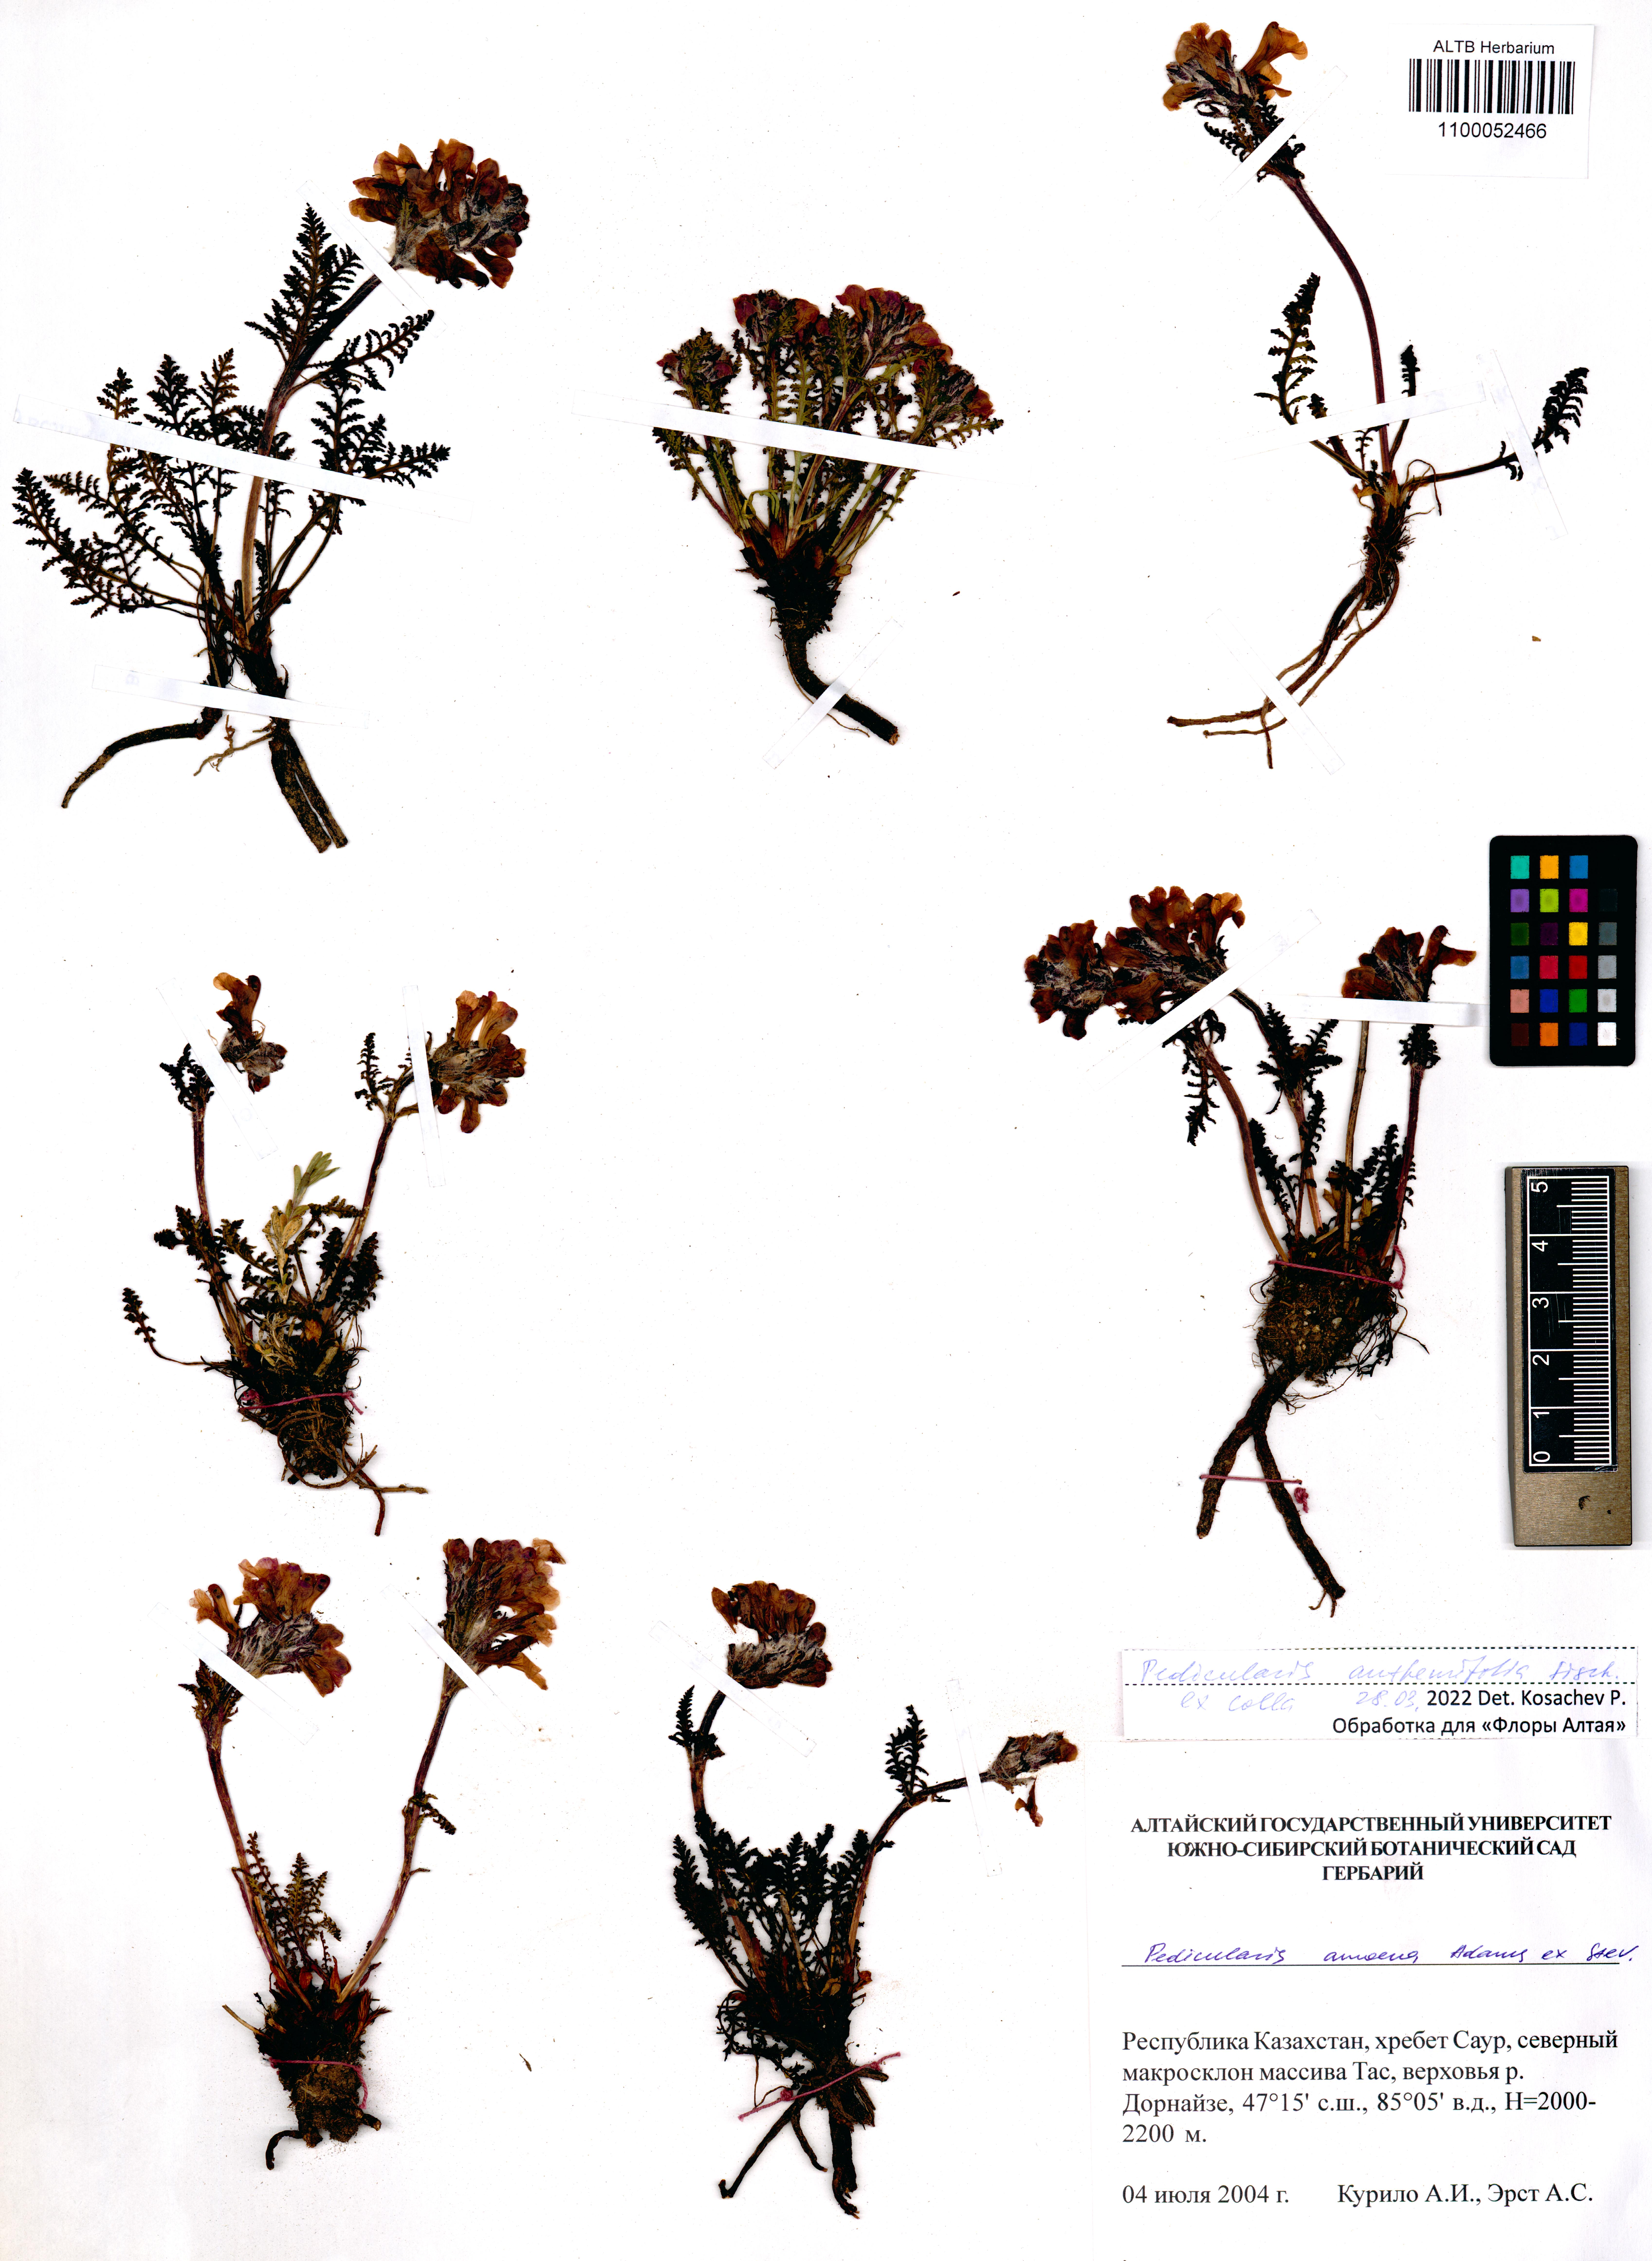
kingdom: Plantae
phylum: Tracheophyta
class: Magnoliopsida
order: Lamiales
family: Orobanchaceae
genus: Pedicularis
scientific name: Pedicularis anthemifolia
